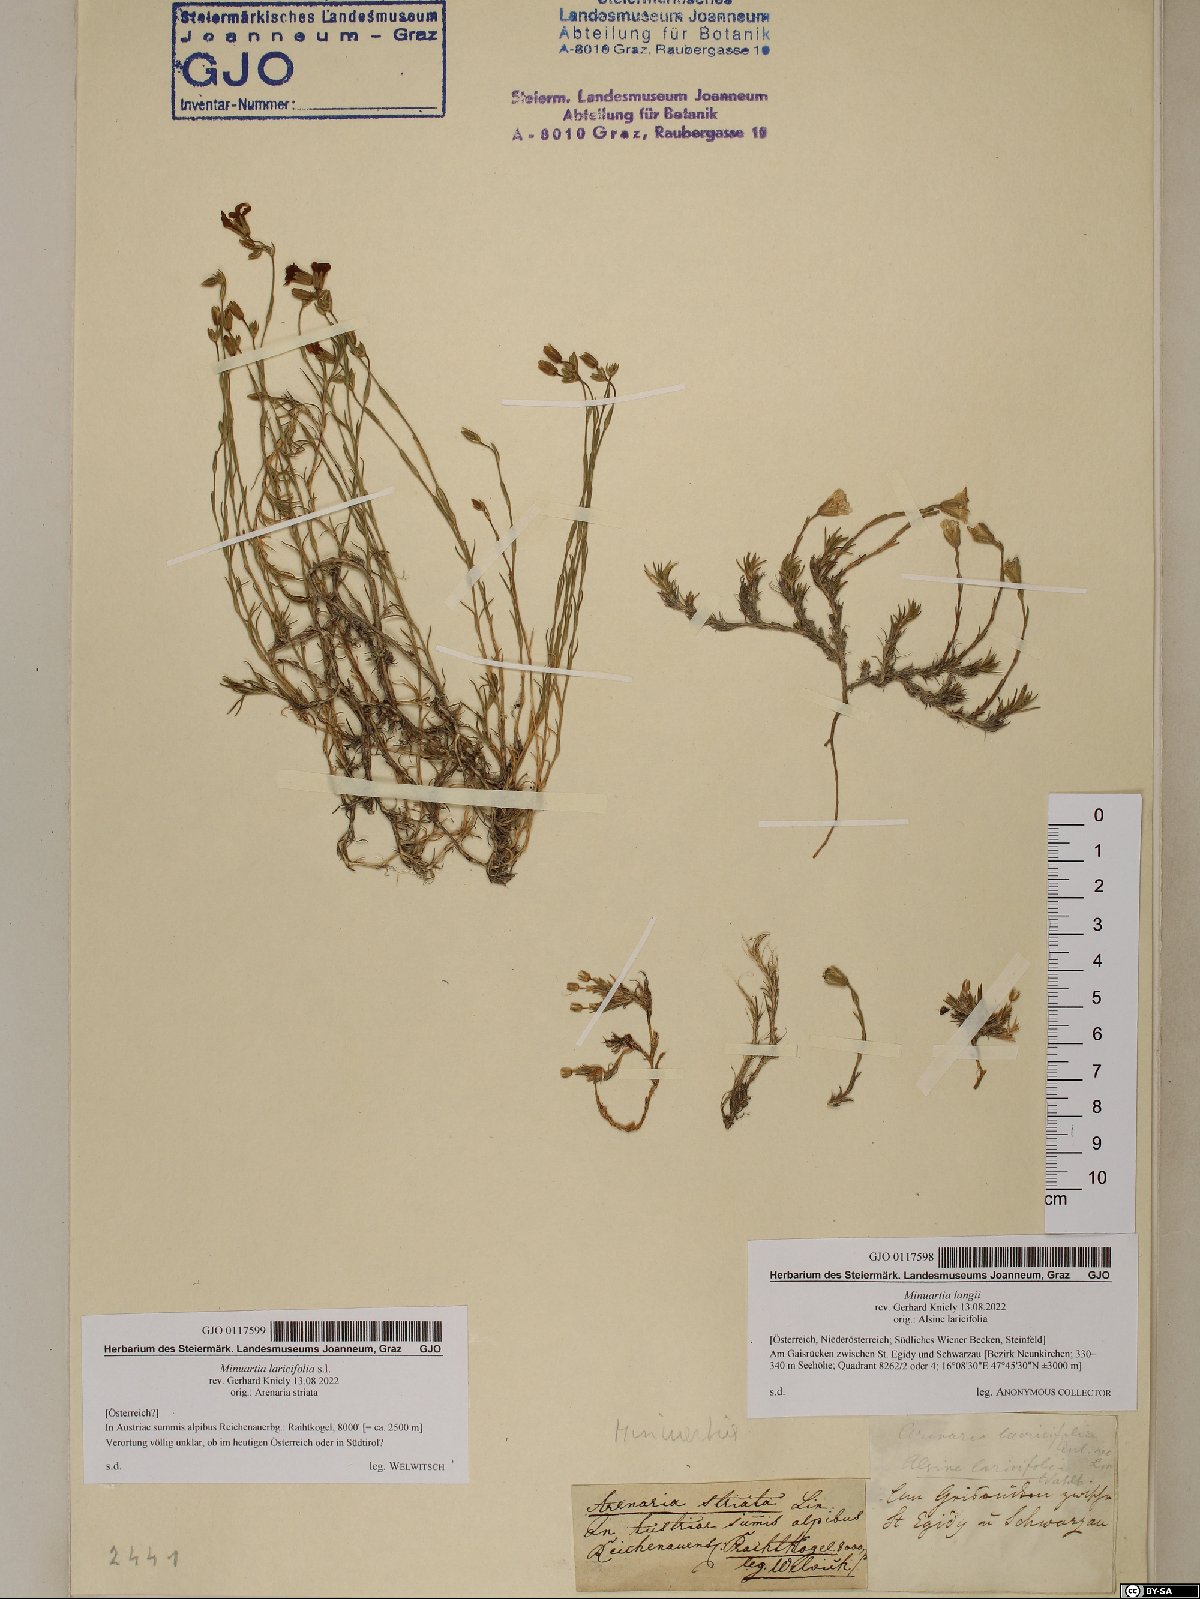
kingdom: Plantae
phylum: Tracheophyta
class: Magnoliopsida
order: Caryophyllales
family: Caryophyllaceae
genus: Cherleria
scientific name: Cherleria laricifolia
